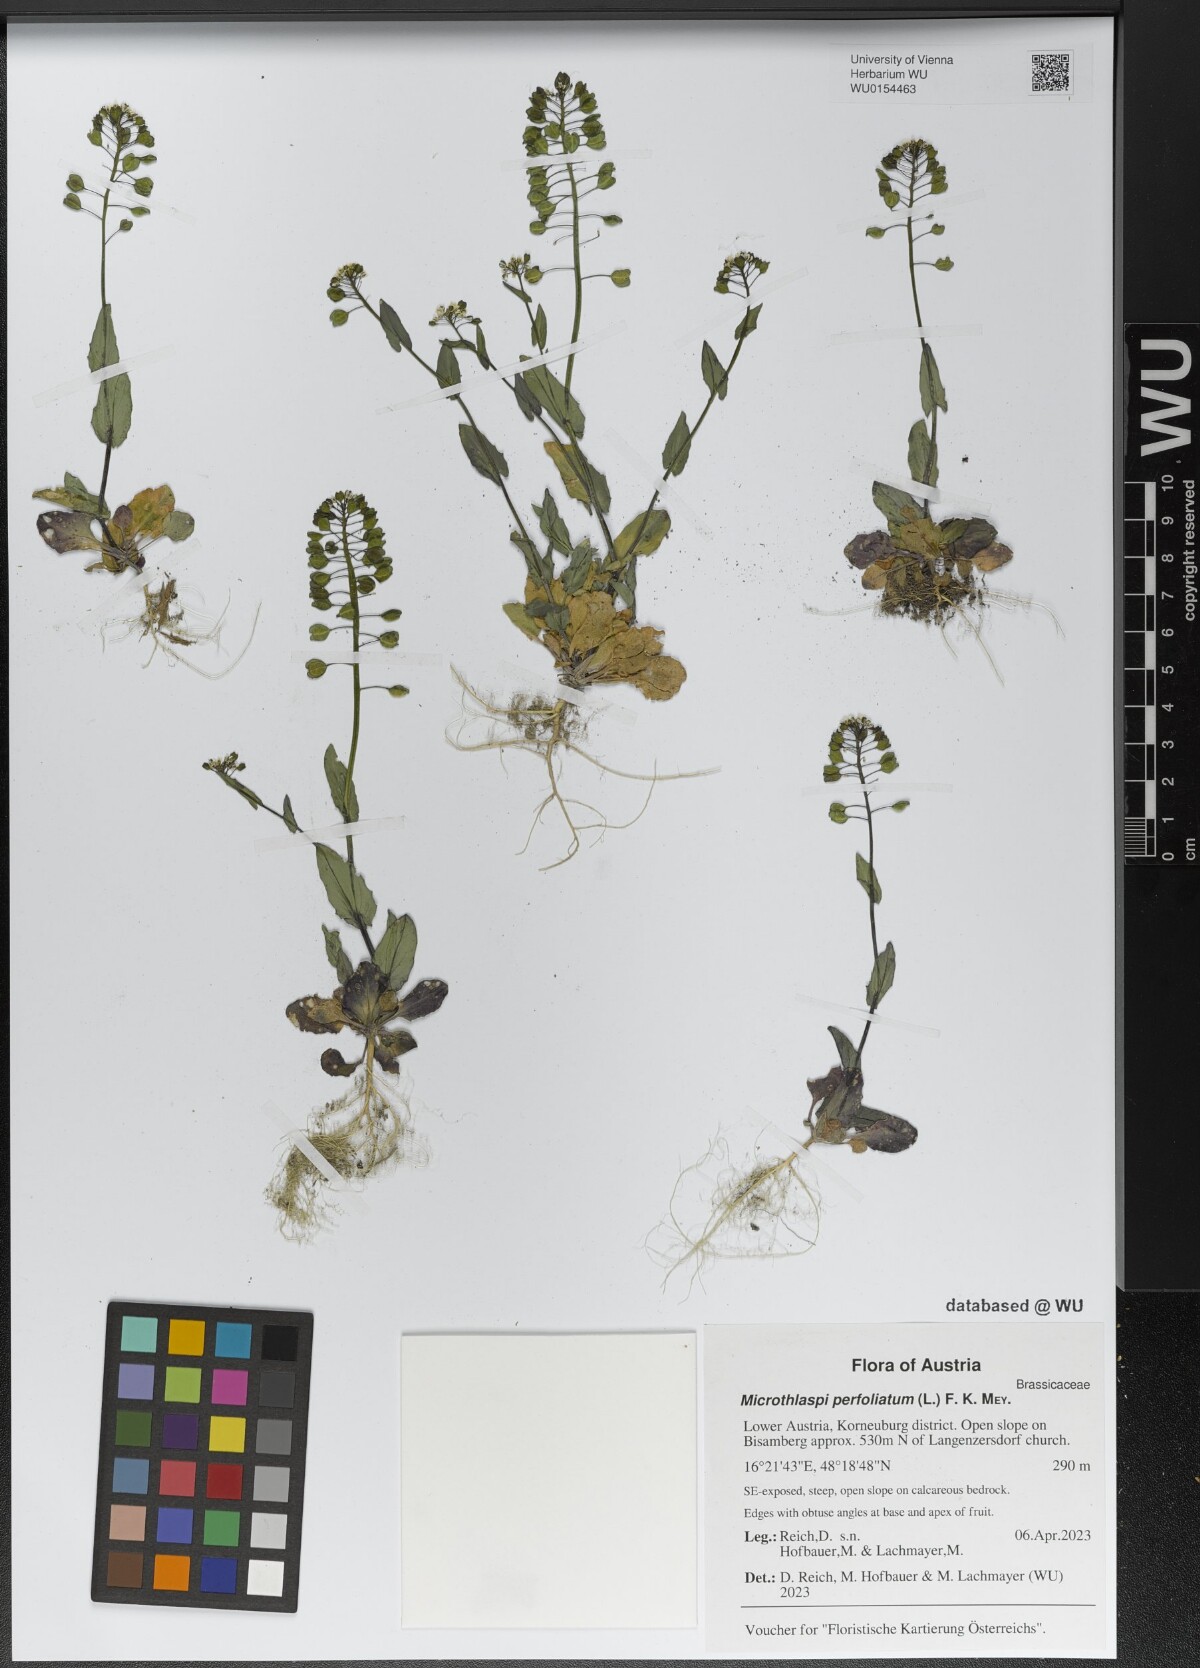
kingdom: Plantae
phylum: Tracheophyta
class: Magnoliopsida
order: Brassicales
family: Brassicaceae
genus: Noccaea
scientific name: Noccaea perfoliata
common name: Perfoliate pennycress
